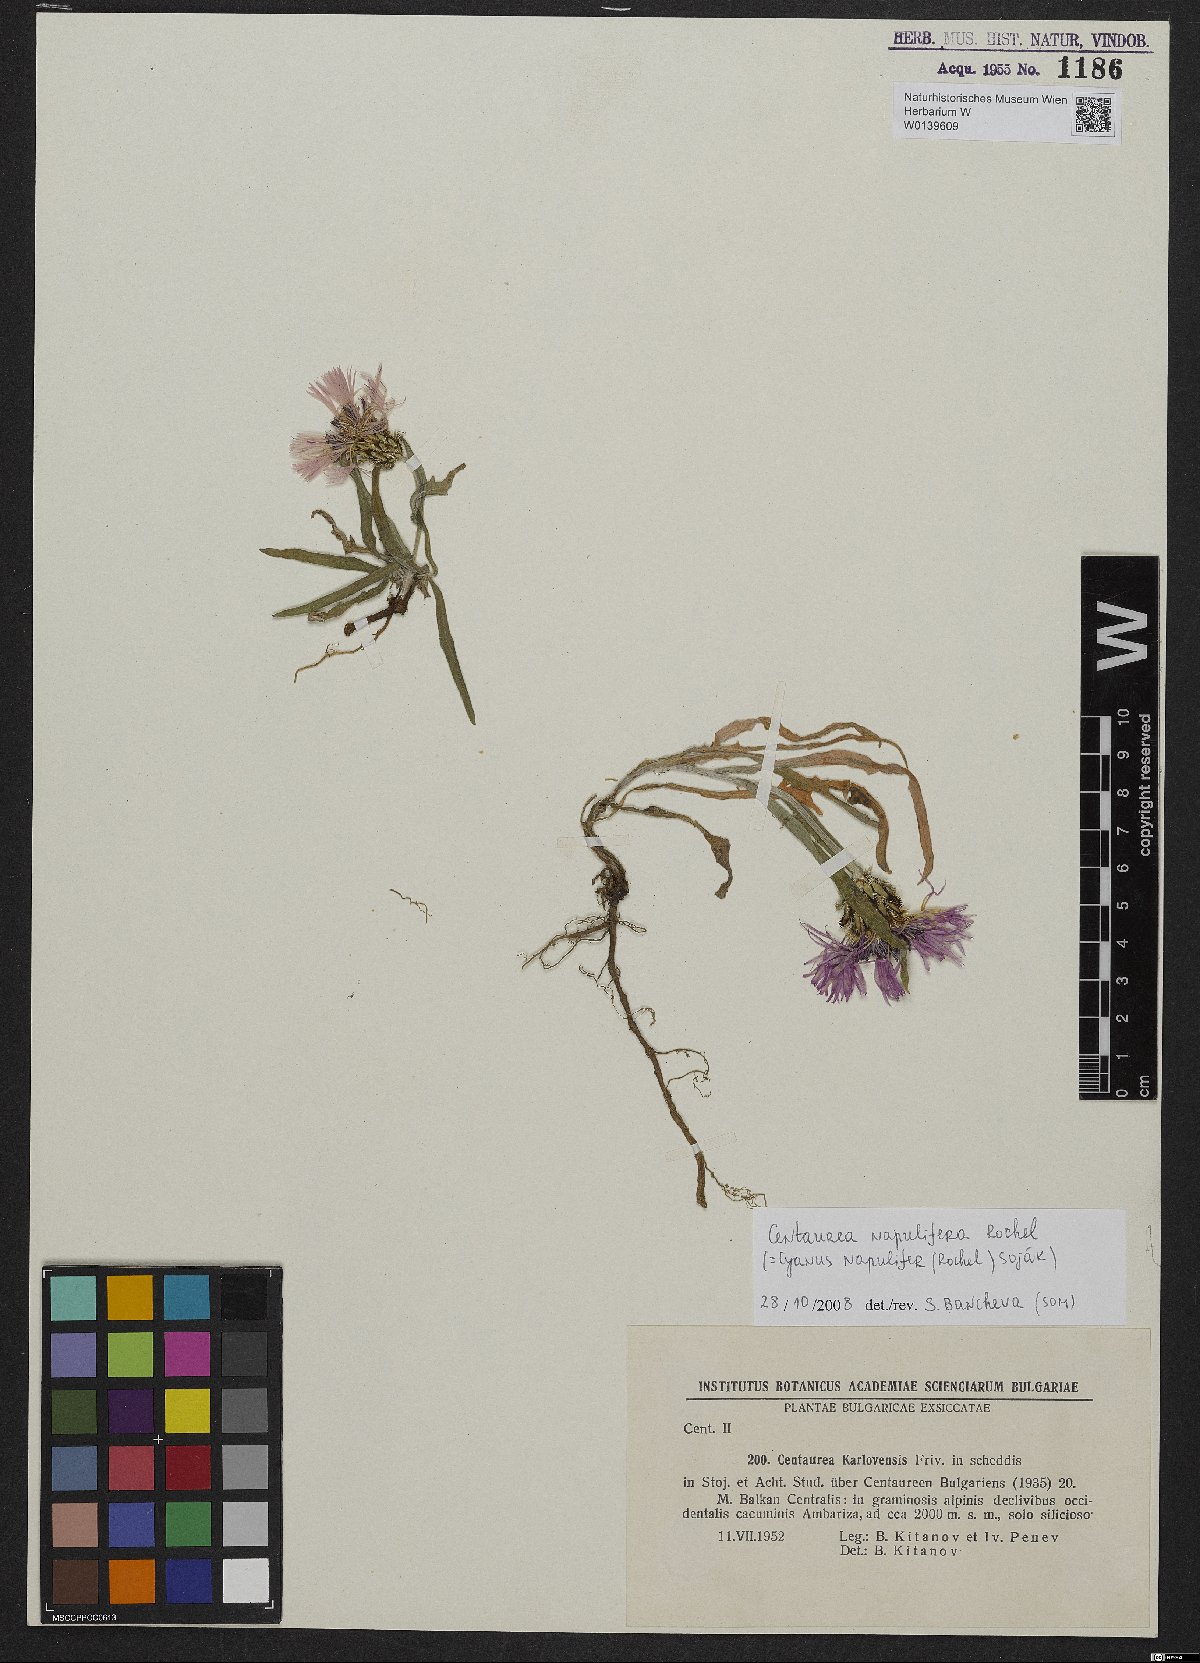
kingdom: Plantae
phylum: Tracheophyta
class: Magnoliopsida
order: Asterales
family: Asteraceae
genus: Centaurea
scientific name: Centaurea napulifera
